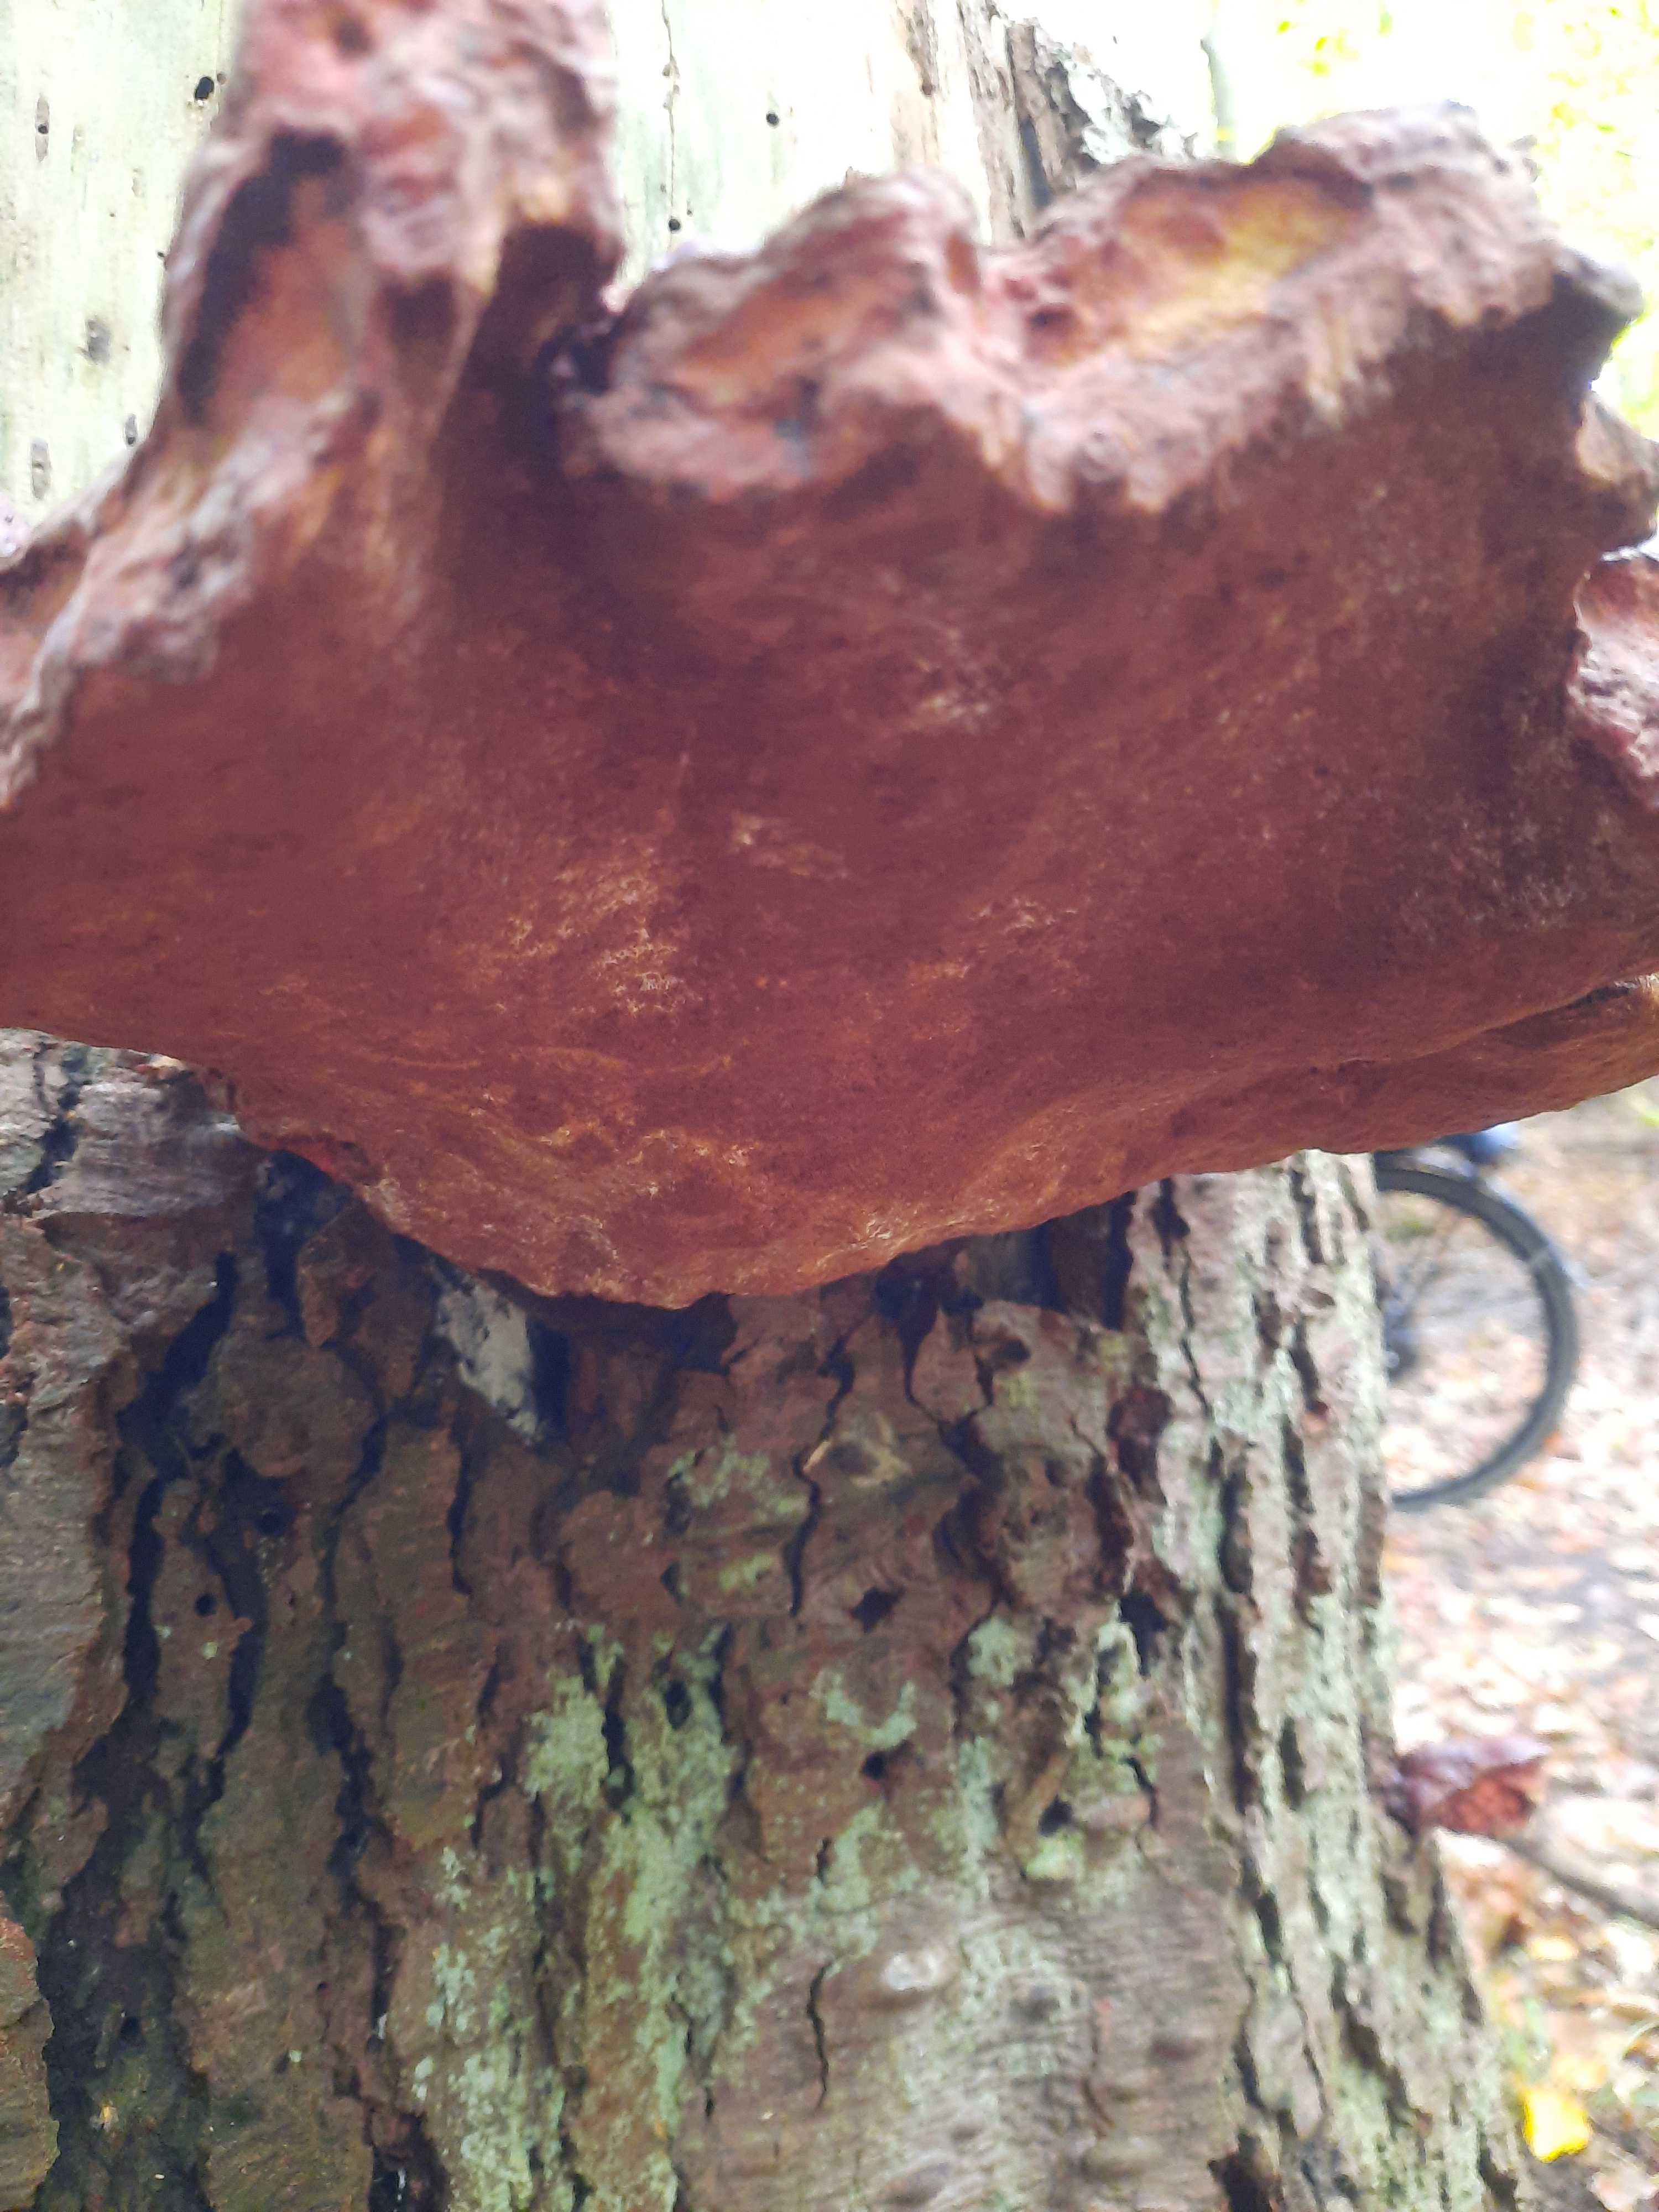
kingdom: Fungi
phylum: Basidiomycota
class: Agaricomycetes
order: Polyporales
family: Polyporaceae
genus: Ganoderma
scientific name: Ganoderma lucidum
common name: skinnende lakporesvamp
